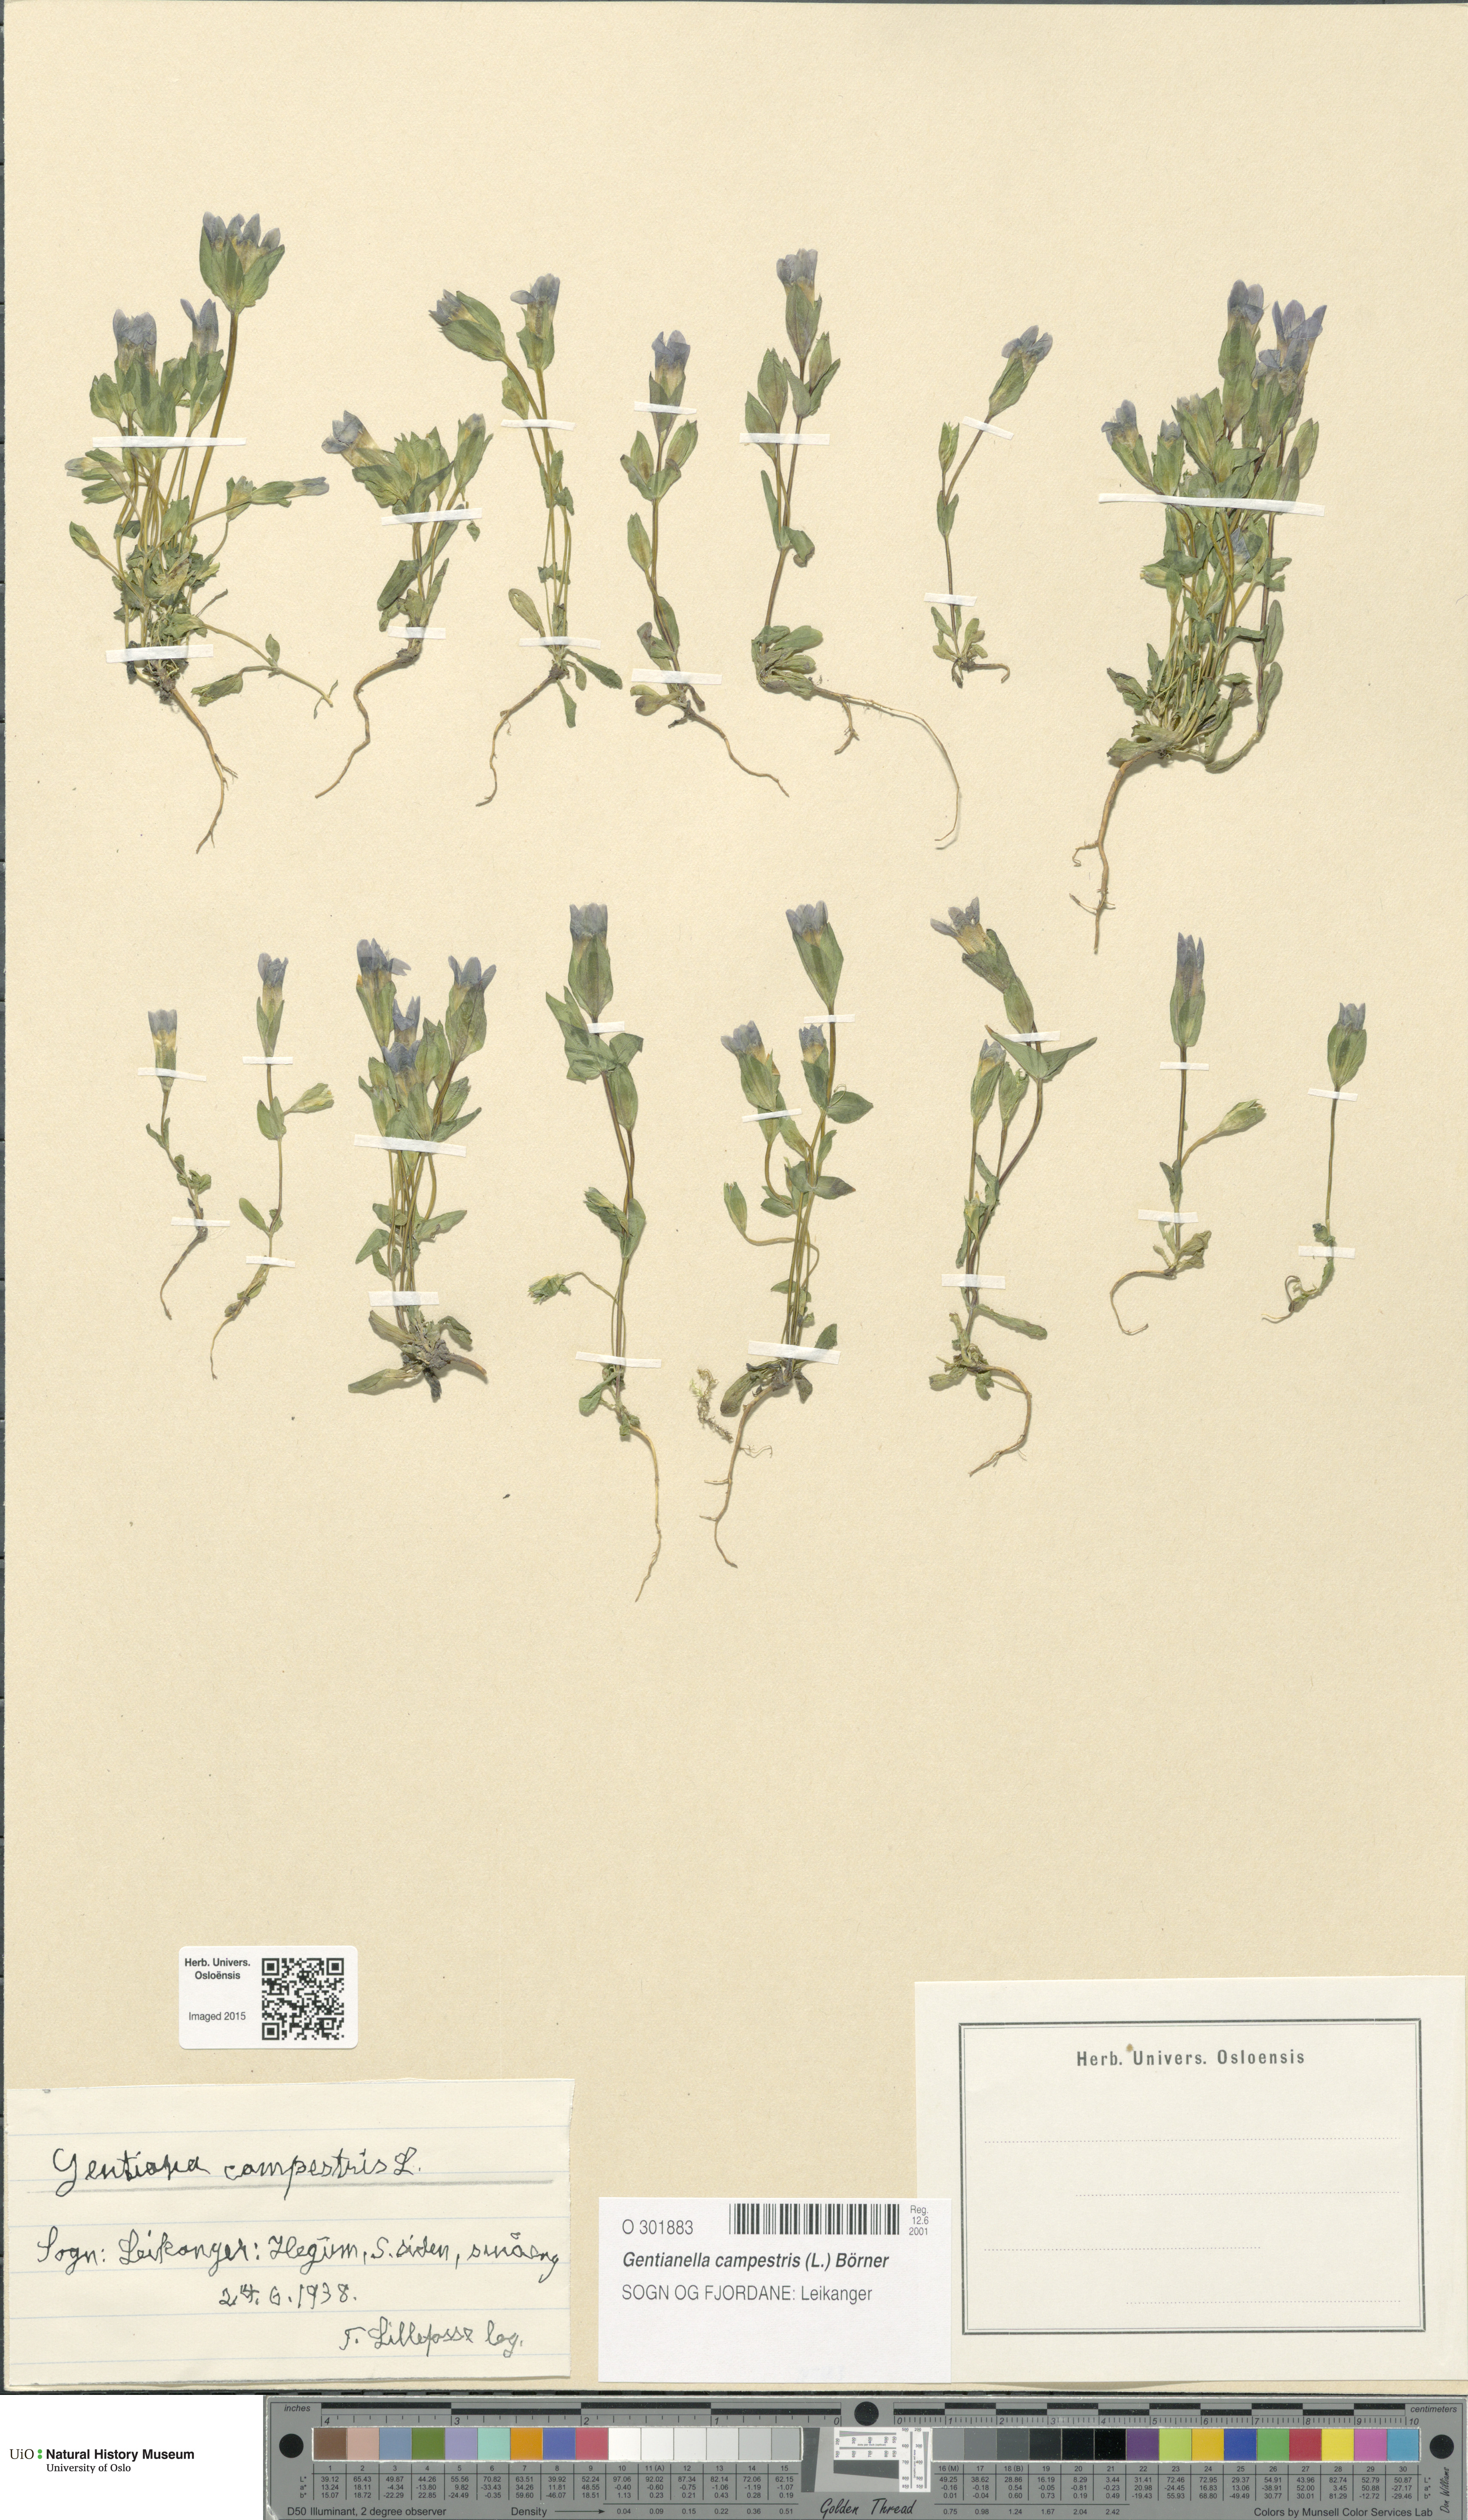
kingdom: Plantae
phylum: Tracheophyta
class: Magnoliopsida
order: Gentianales
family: Gentianaceae
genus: Gentianella
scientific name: Gentianella campestris
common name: Field gentian
